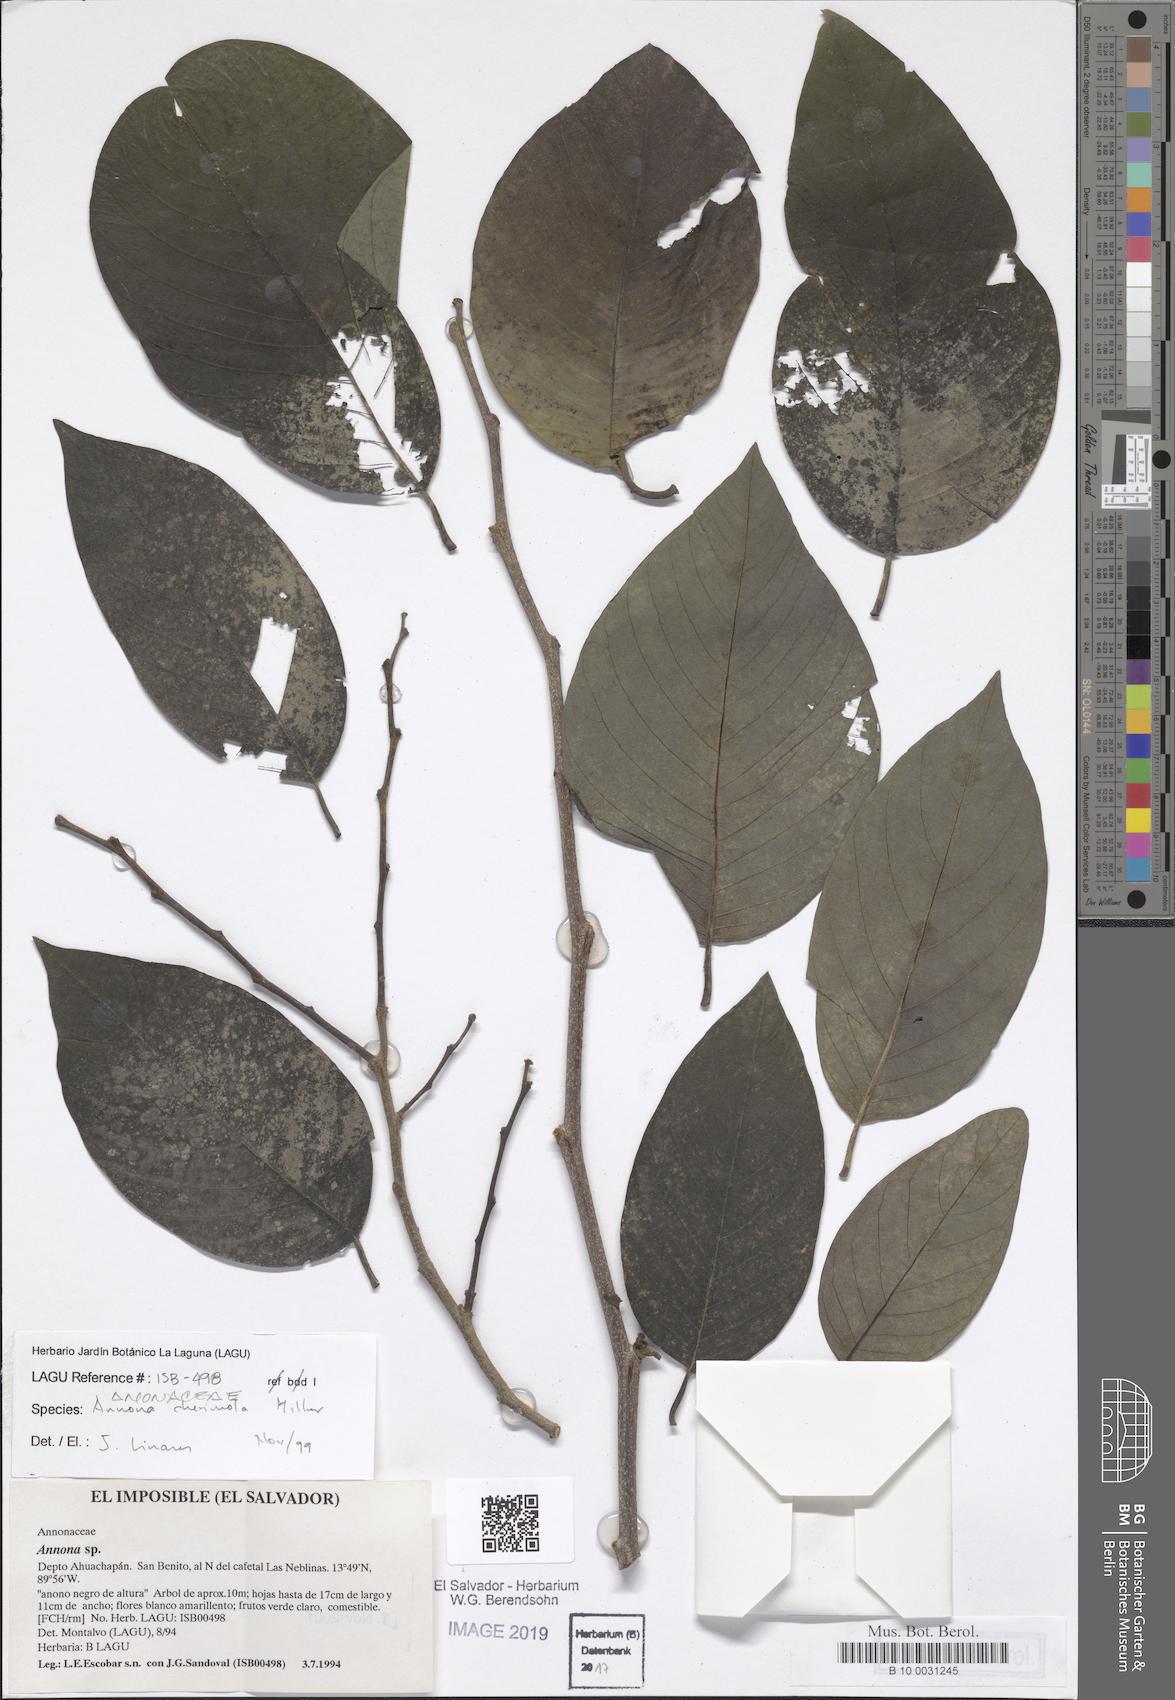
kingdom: Plantae
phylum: Tracheophyta
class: Magnoliopsida
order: Magnoliales
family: Annonaceae
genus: Annona
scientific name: Annona cherimola
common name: Cherimoya
